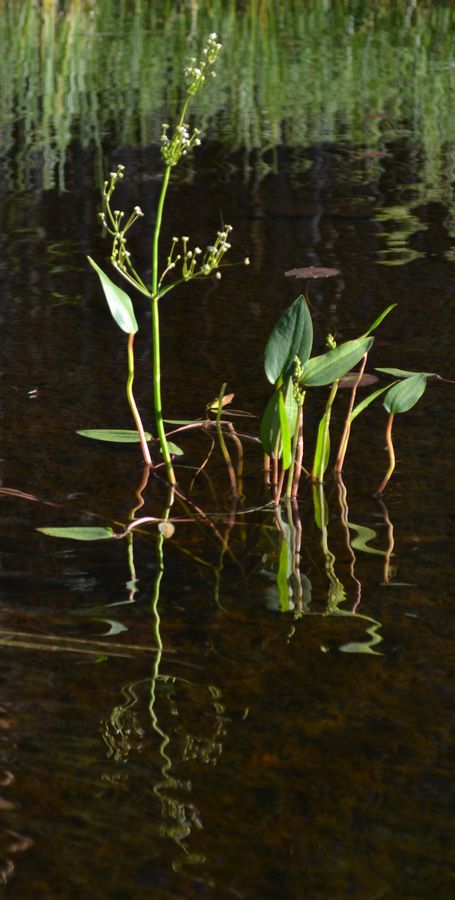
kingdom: Plantae
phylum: Tracheophyta
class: Liliopsida
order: Alismatales
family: Alismataceae
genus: Alisma
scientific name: Alisma juzepczukii
